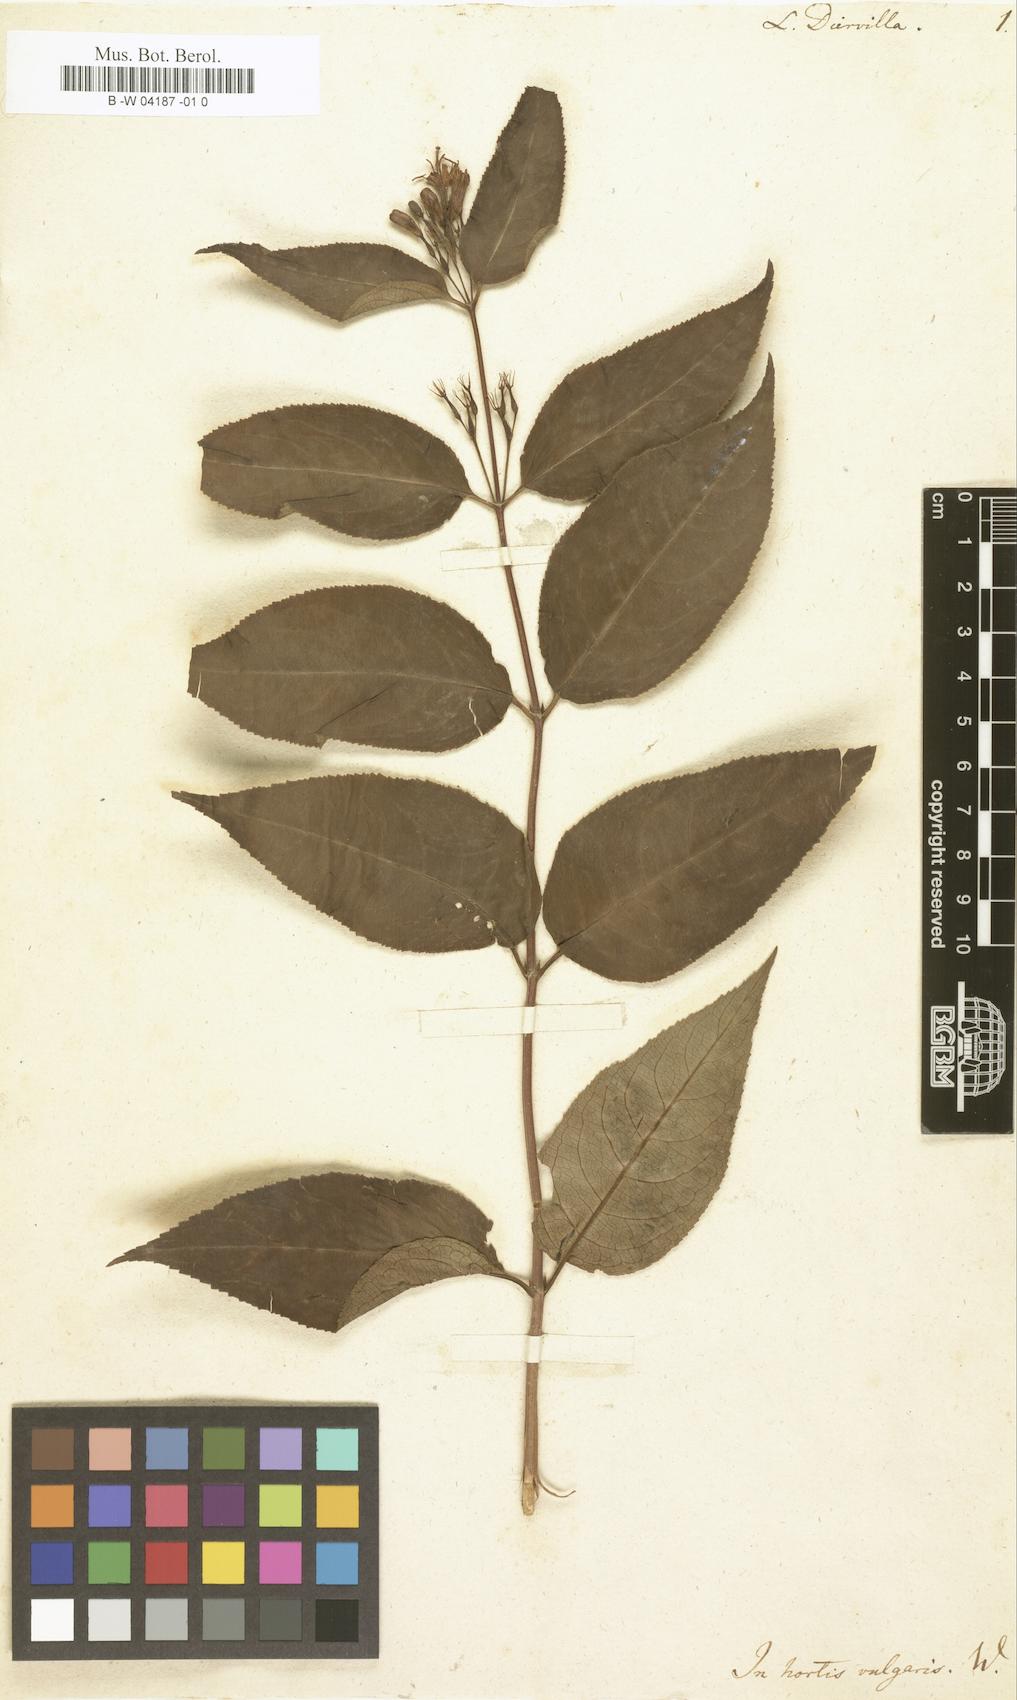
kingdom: Plantae
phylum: Tracheophyta
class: Magnoliopsida
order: Dipsacales
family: Caprifoliaceae
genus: Diervilla
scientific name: Diervilla lonicera
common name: Bush-honeysuckle
